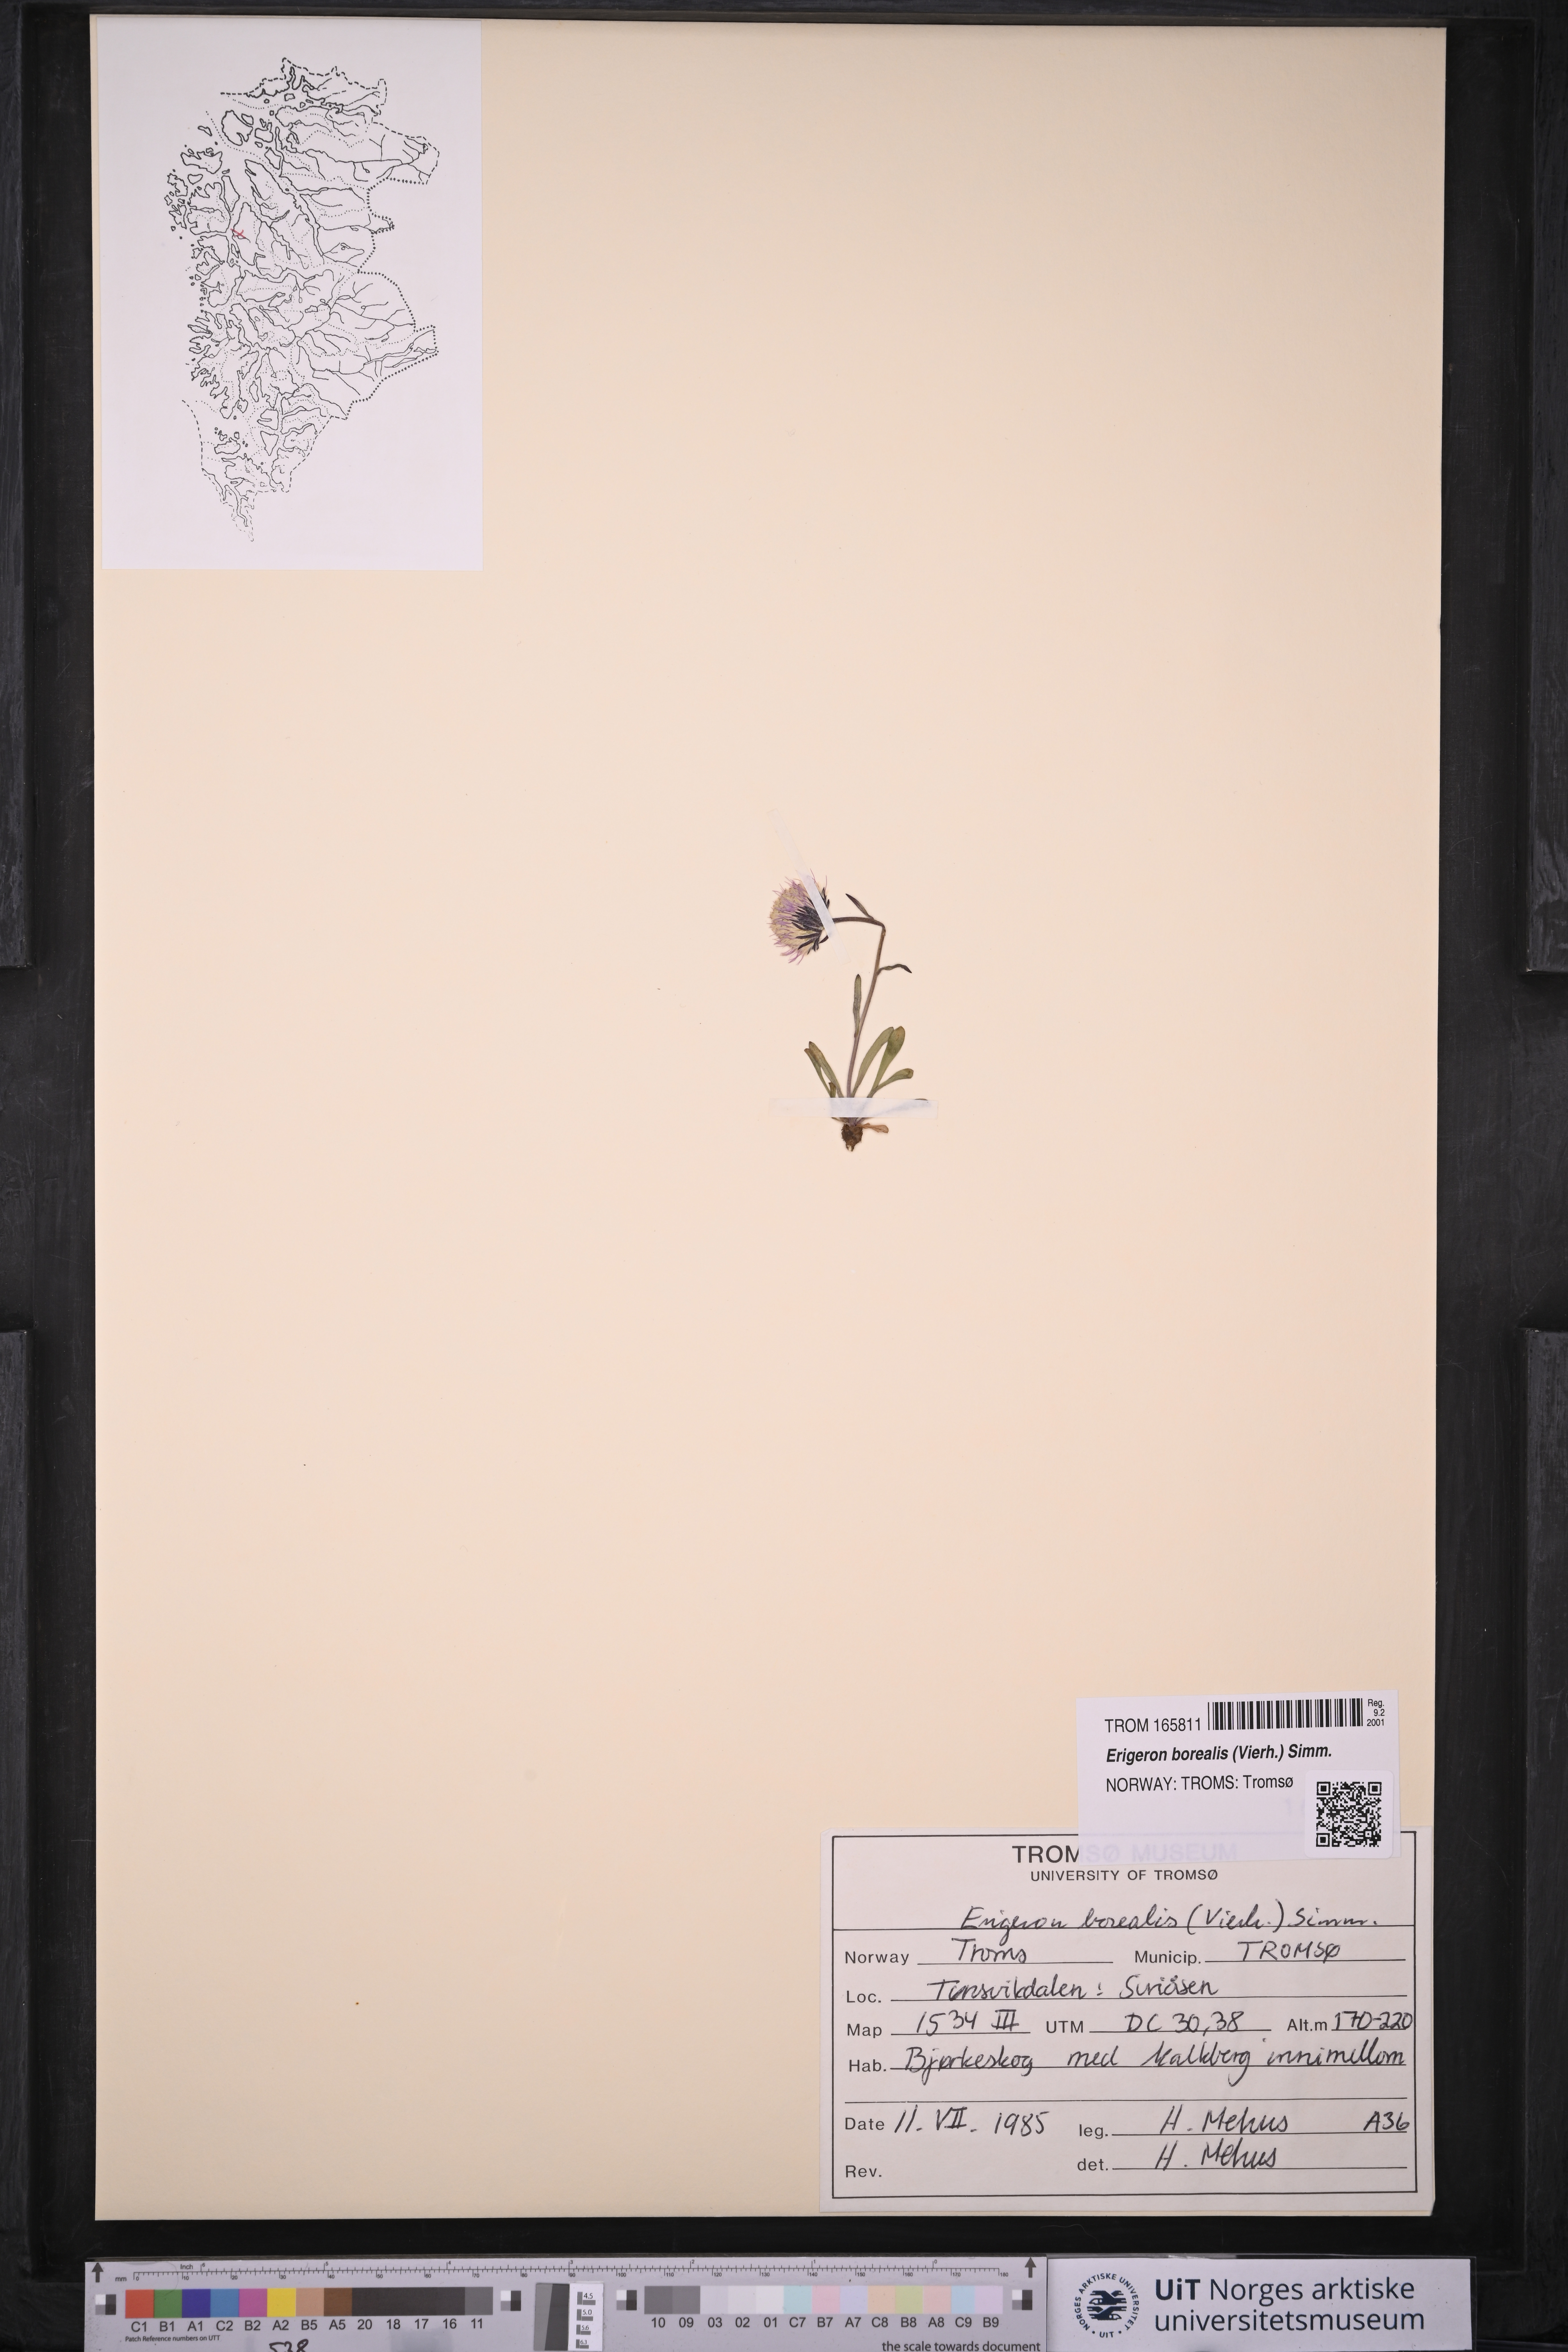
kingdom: Plantae
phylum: Tracheophyta
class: Magnoliopsida
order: Asterales
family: Asteraceae
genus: Erigeron
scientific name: Erigeron borealis
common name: Alpine fleabane
